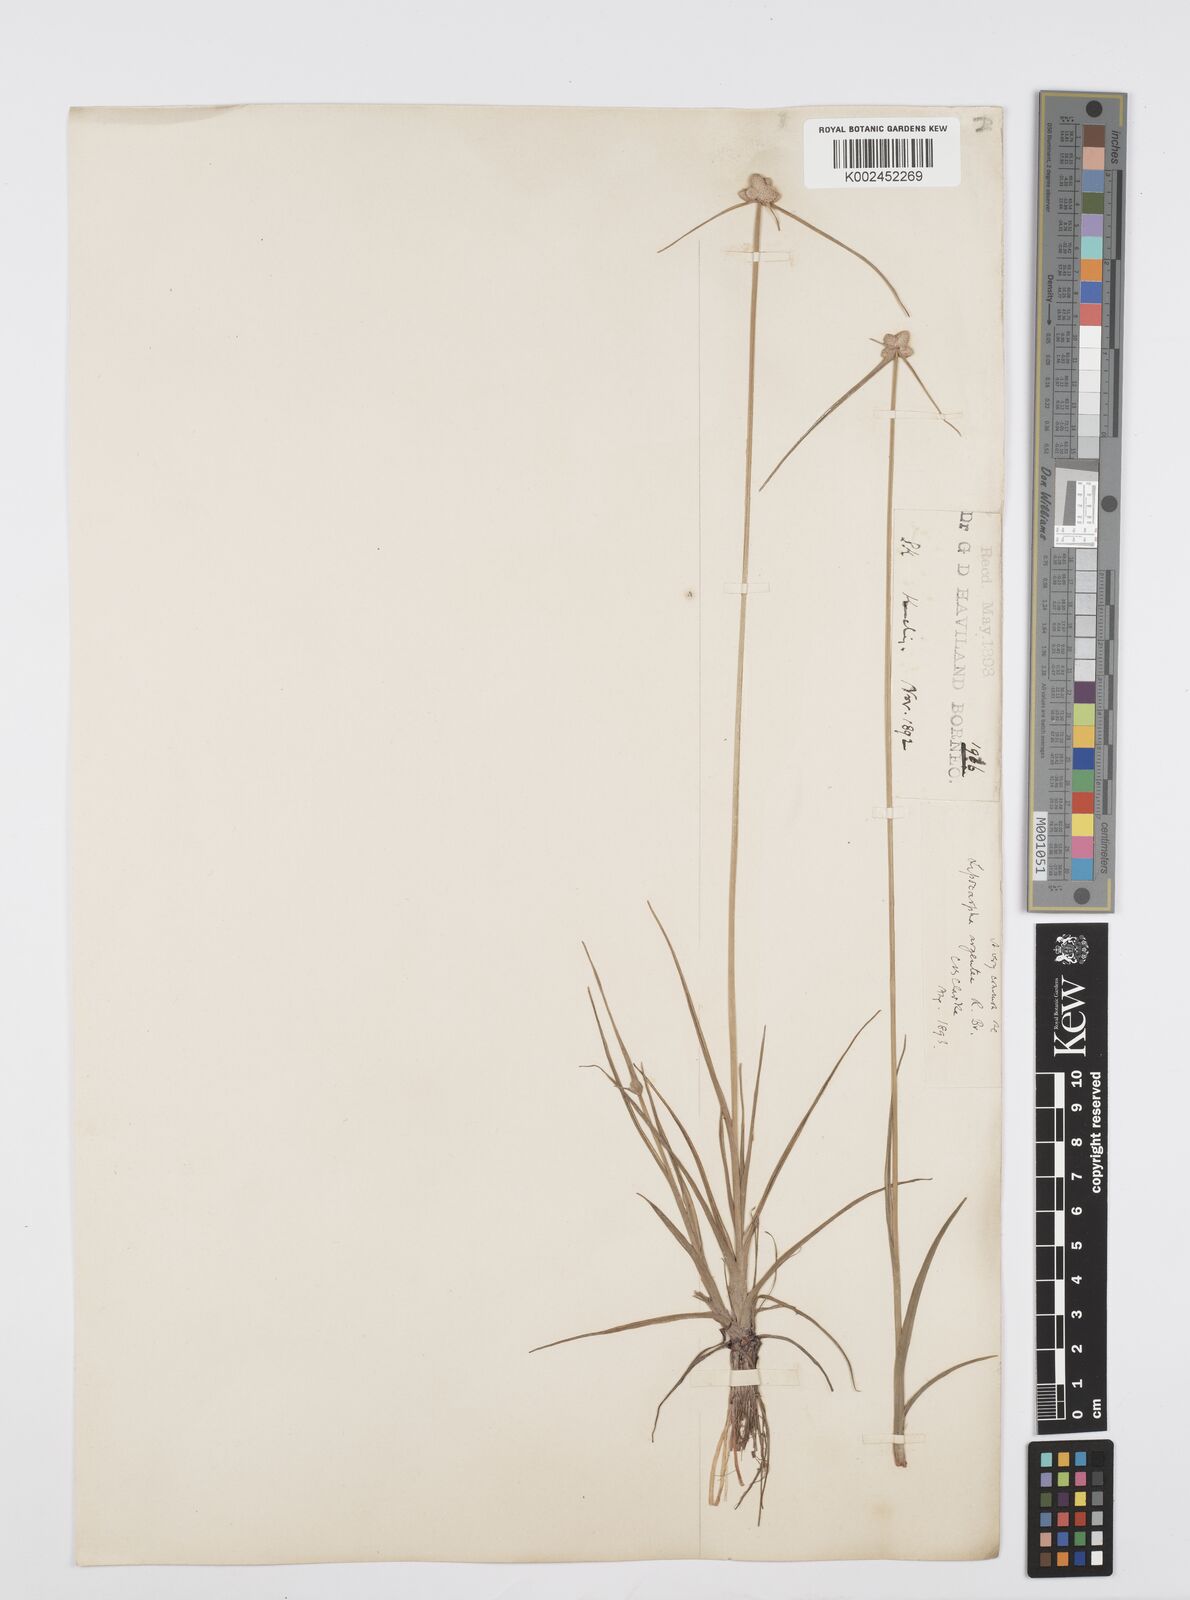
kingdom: Plantae
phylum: Tracheophyta
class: Liliopsida
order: Poales
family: Cyperaceae
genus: Cyperus
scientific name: Cyperus
